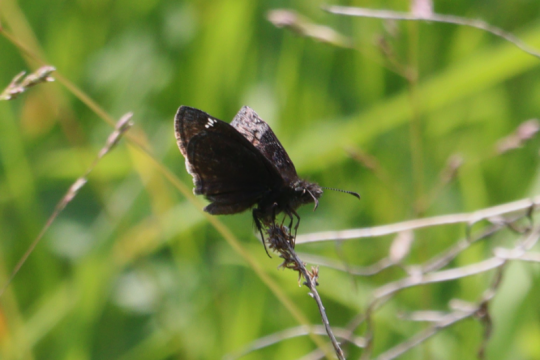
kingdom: Animalia
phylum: Arthropoda
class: Insecta
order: Lepidoptera
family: Hesperiidae
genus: Erynnis
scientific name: Erynnis
